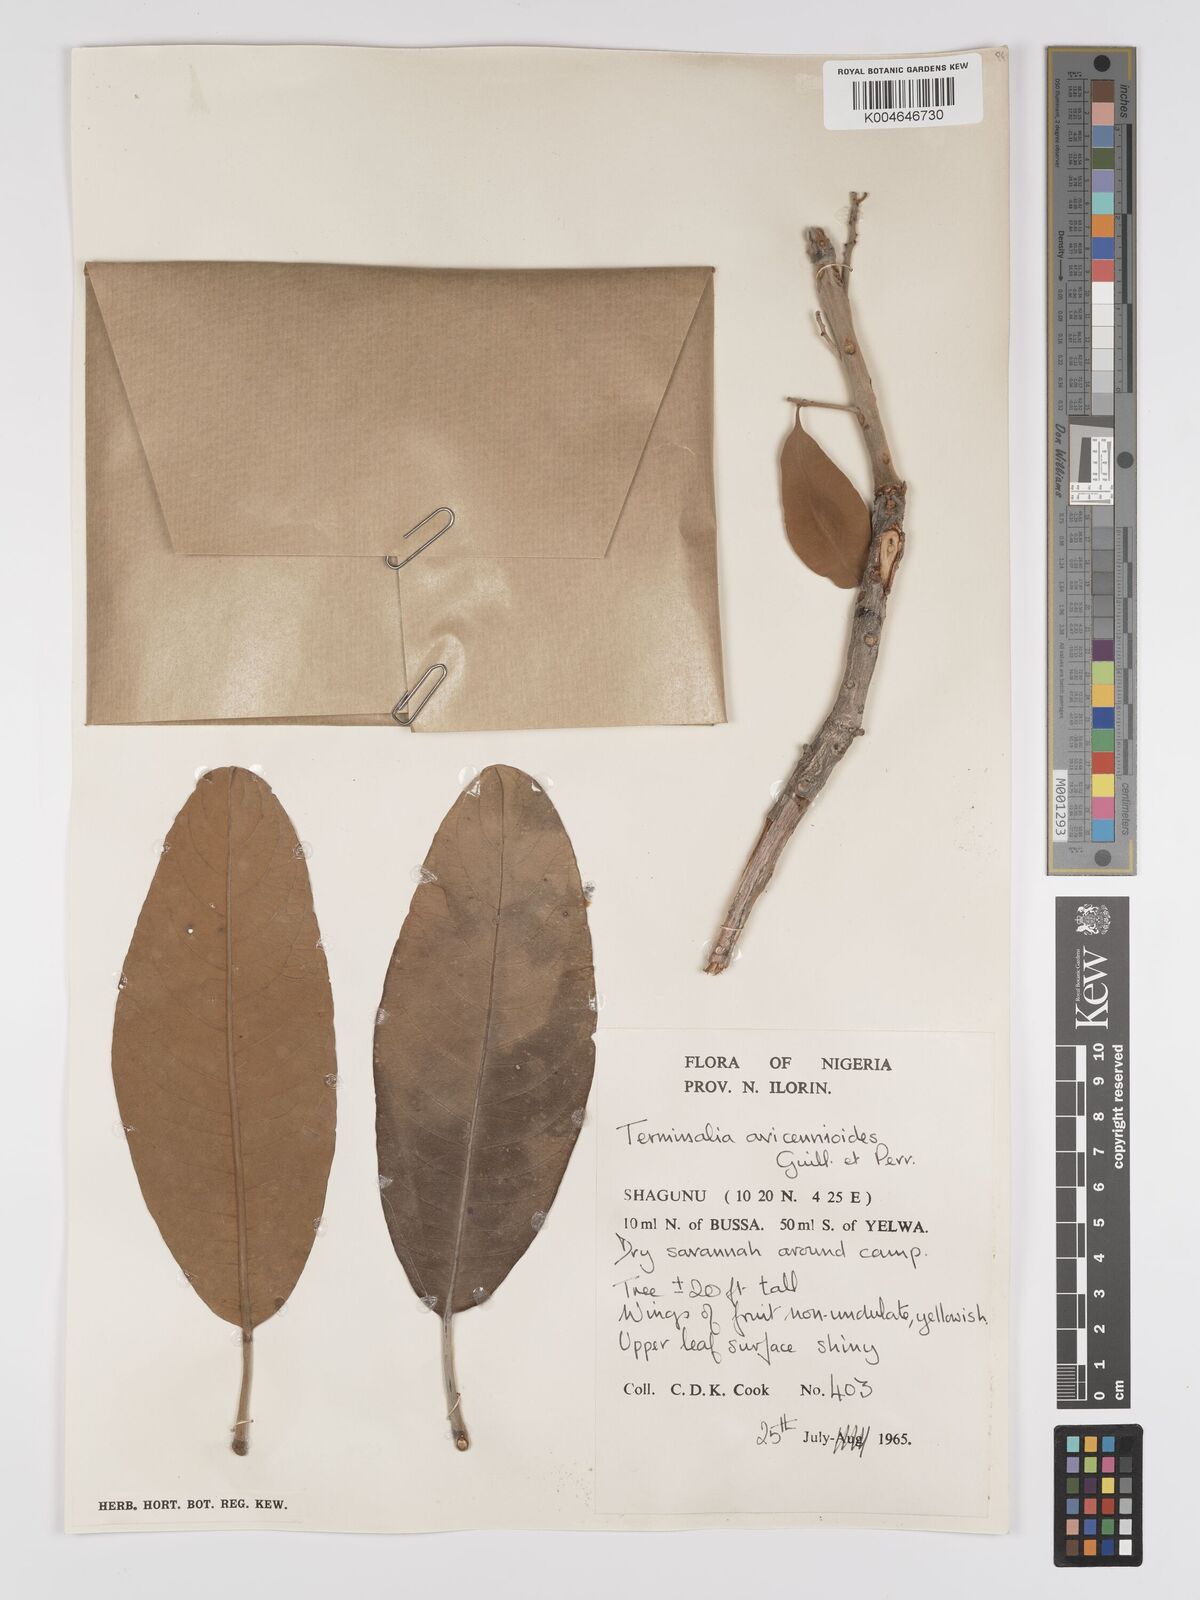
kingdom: Plantae
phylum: Tracheophyta
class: Magnoliopsida
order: Myrtales
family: Combretaceae
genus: Terminalia
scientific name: Terminalia avicennioides
